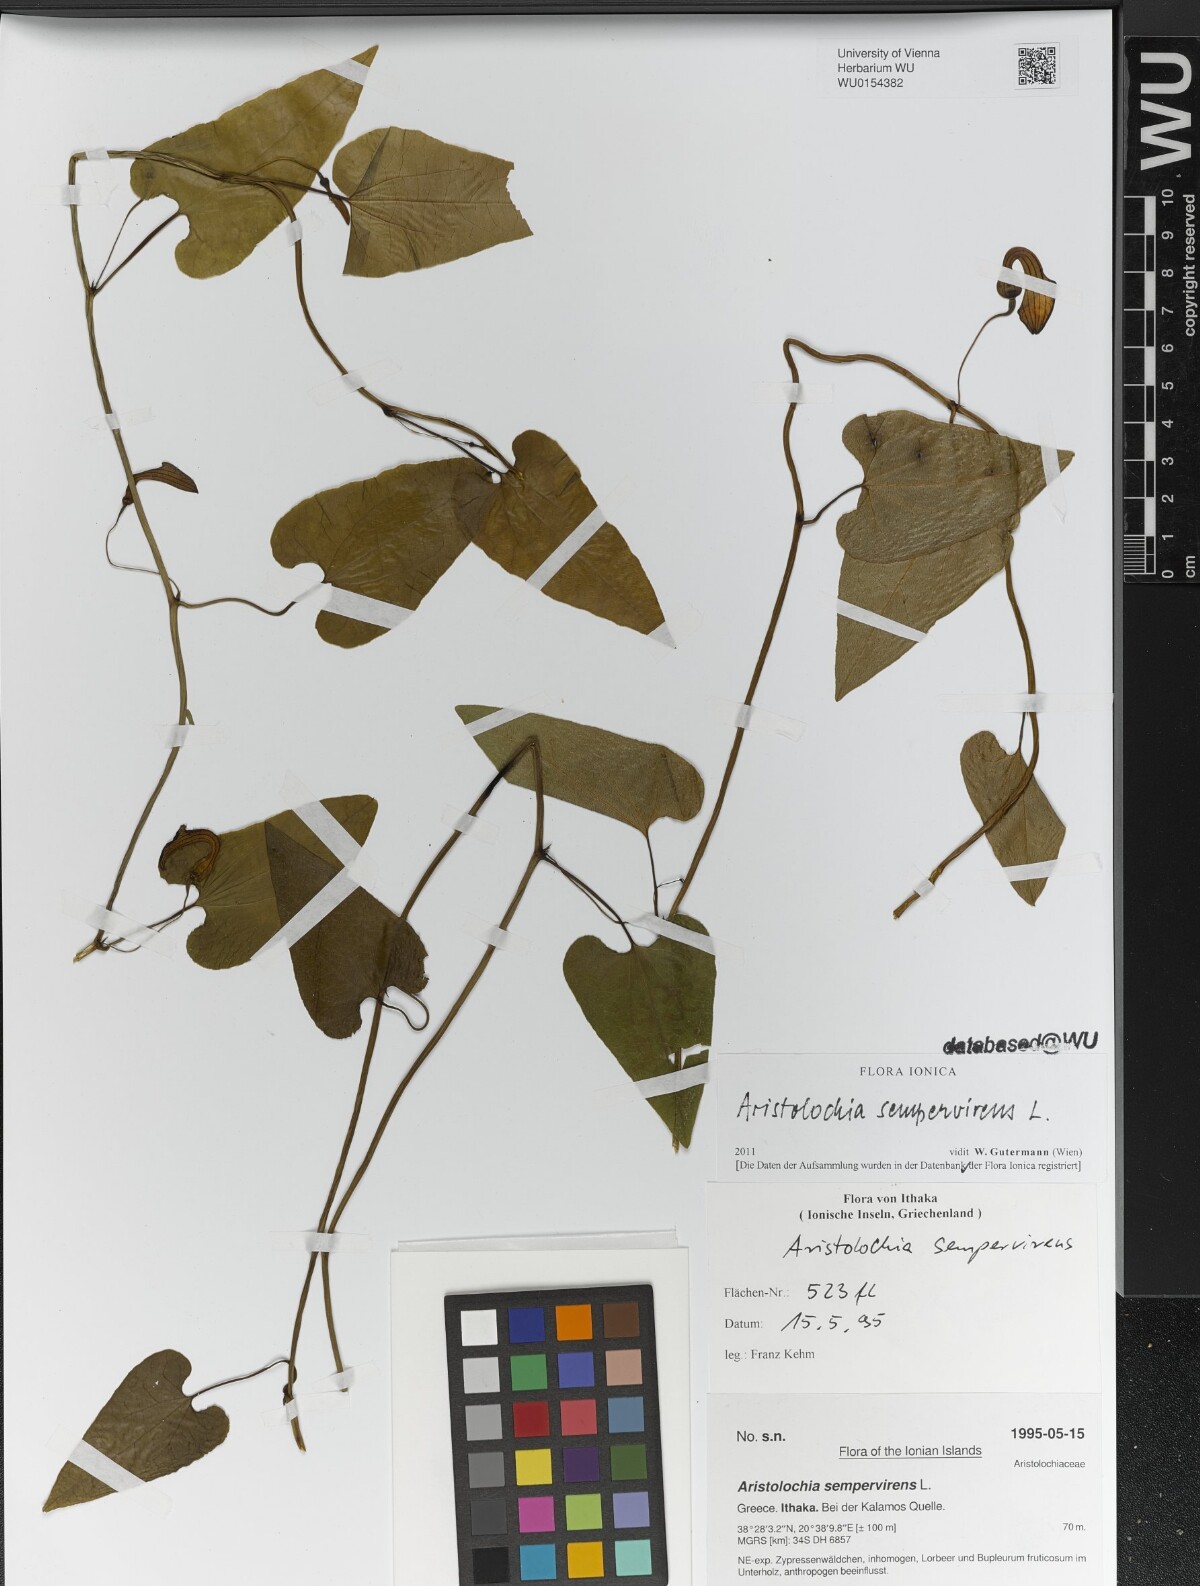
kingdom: Plantae
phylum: Tracheophyta
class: Magnoliopsida
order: Piperales
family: Aristolochiaceae
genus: Aristolochia
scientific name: Aristolochia sempervirens
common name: Long birthwort
